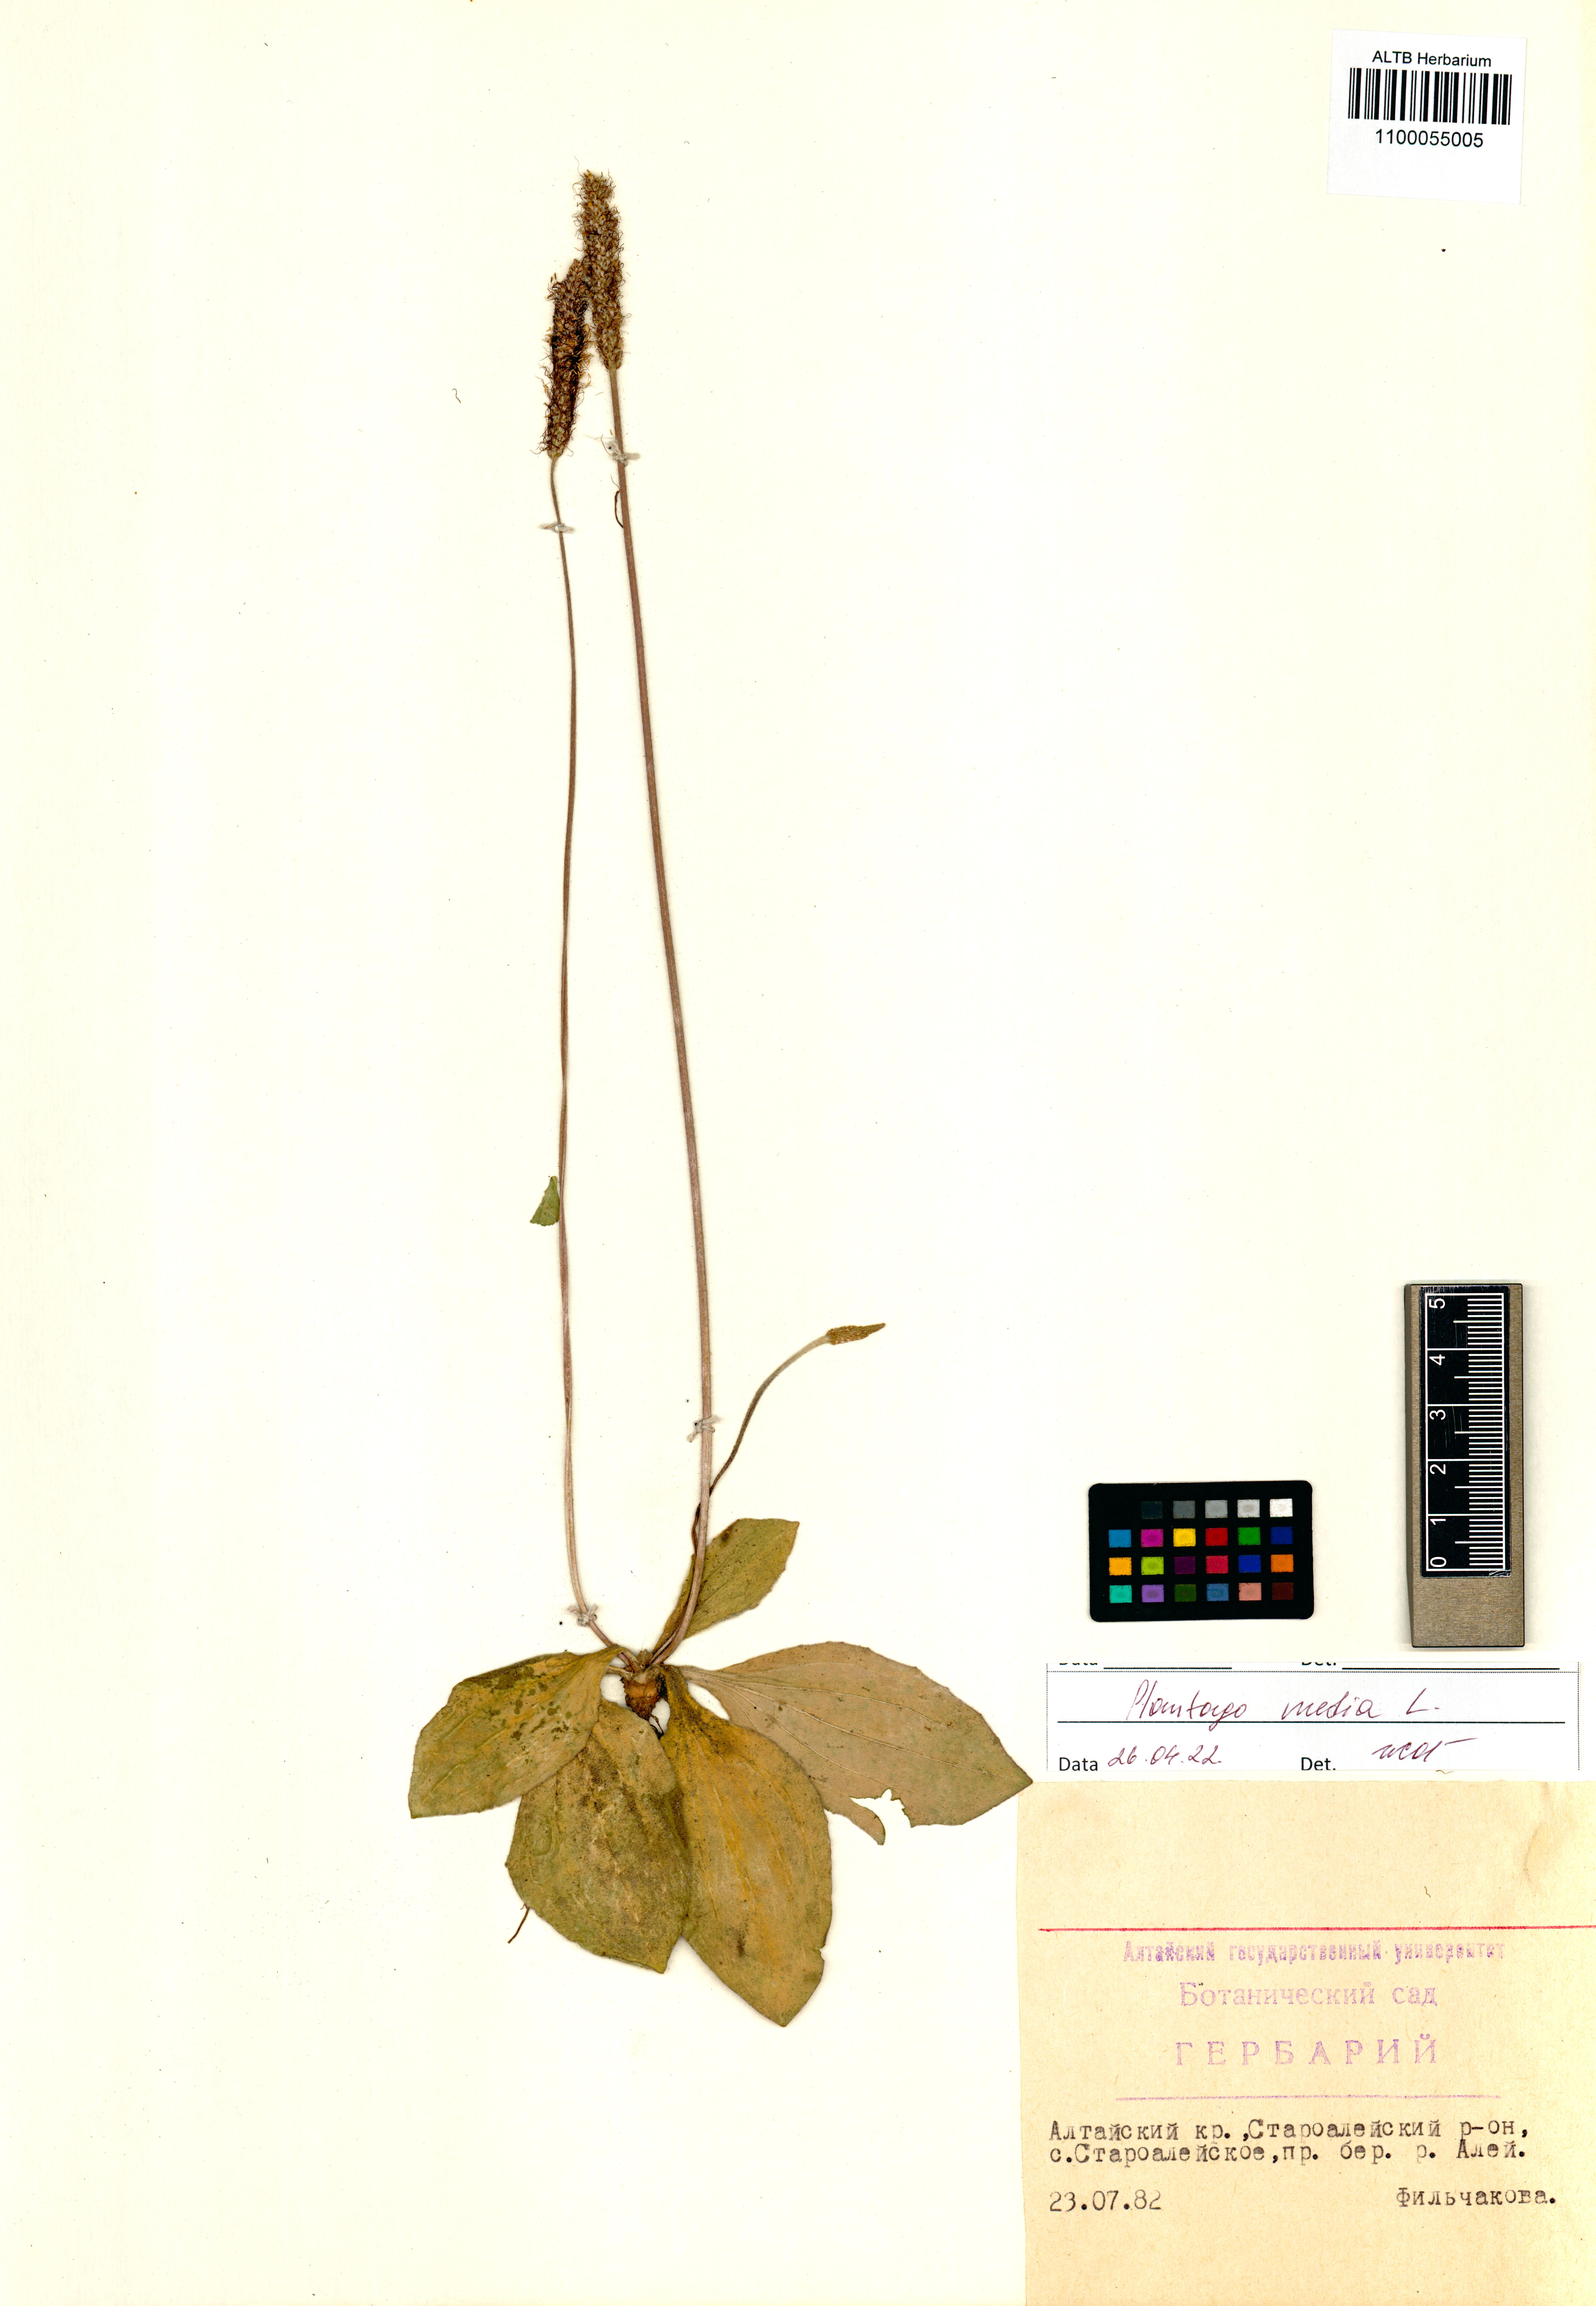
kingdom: Plantae
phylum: Tracheophyta
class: Magnoliopsida
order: Lamiales
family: Plantaginaceae
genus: Plantago
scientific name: Plantago media
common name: Hoary plantain
